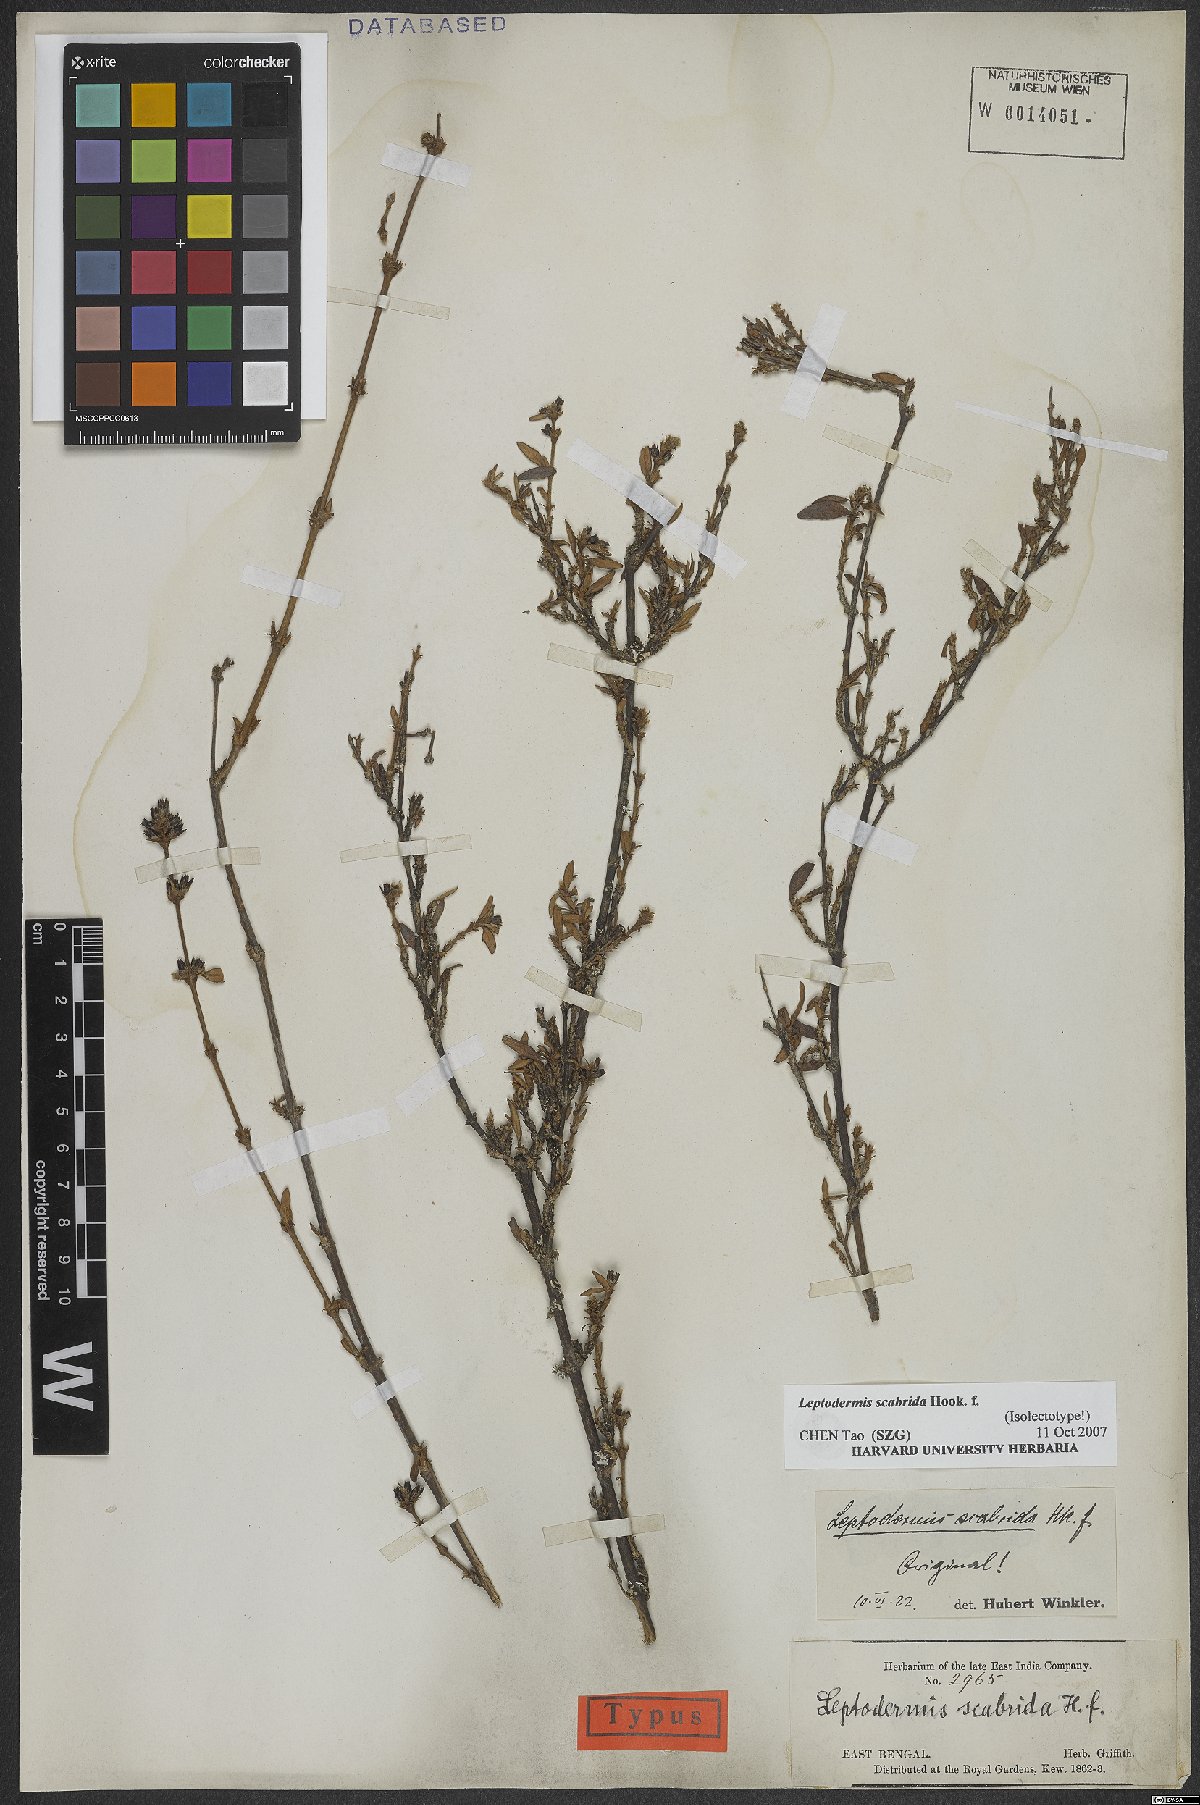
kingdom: Plantae
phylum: Tracheophyta
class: Magnoliopsida
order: Gentianales
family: Rubiaceae
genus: Leptodermis
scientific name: Leptodermis scabrida
